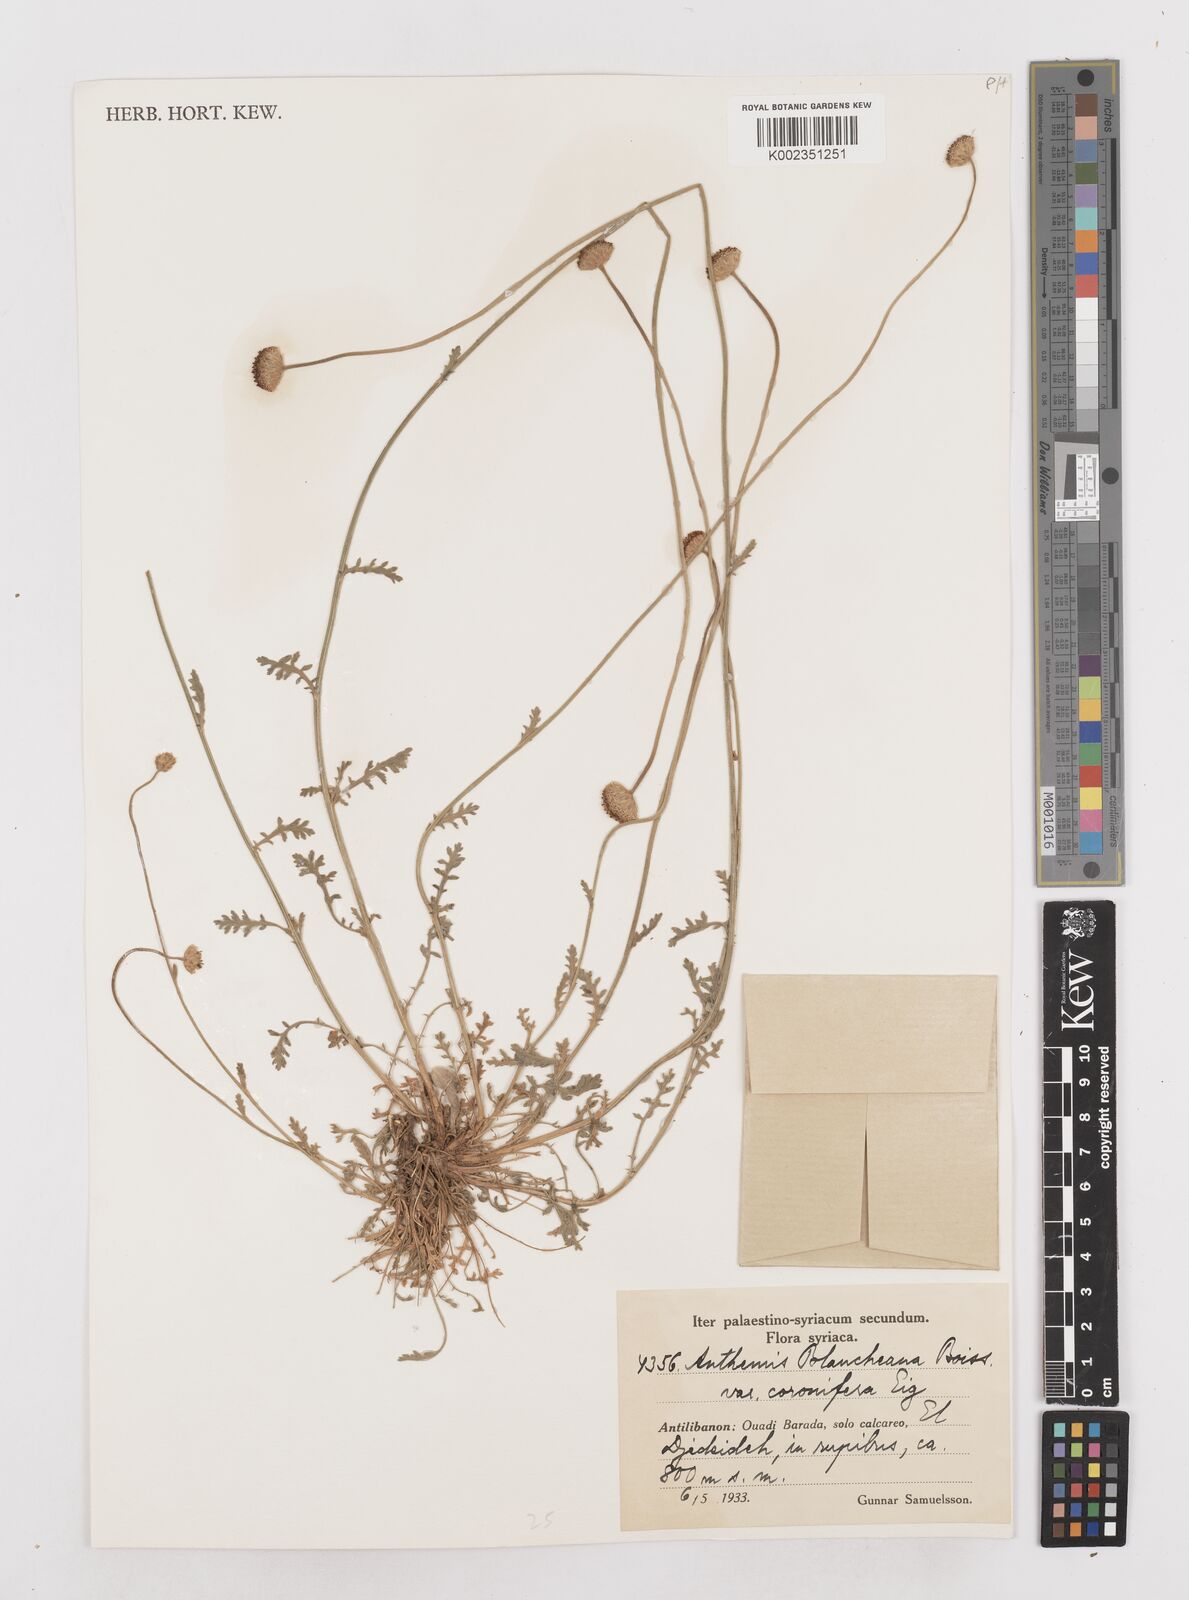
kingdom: Plantae
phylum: Tracheophyta
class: Magnoliopsida
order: Asterales
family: Asteraceae
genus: Anthemis
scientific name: Anthemis cretica
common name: Mountain dog-daisy
